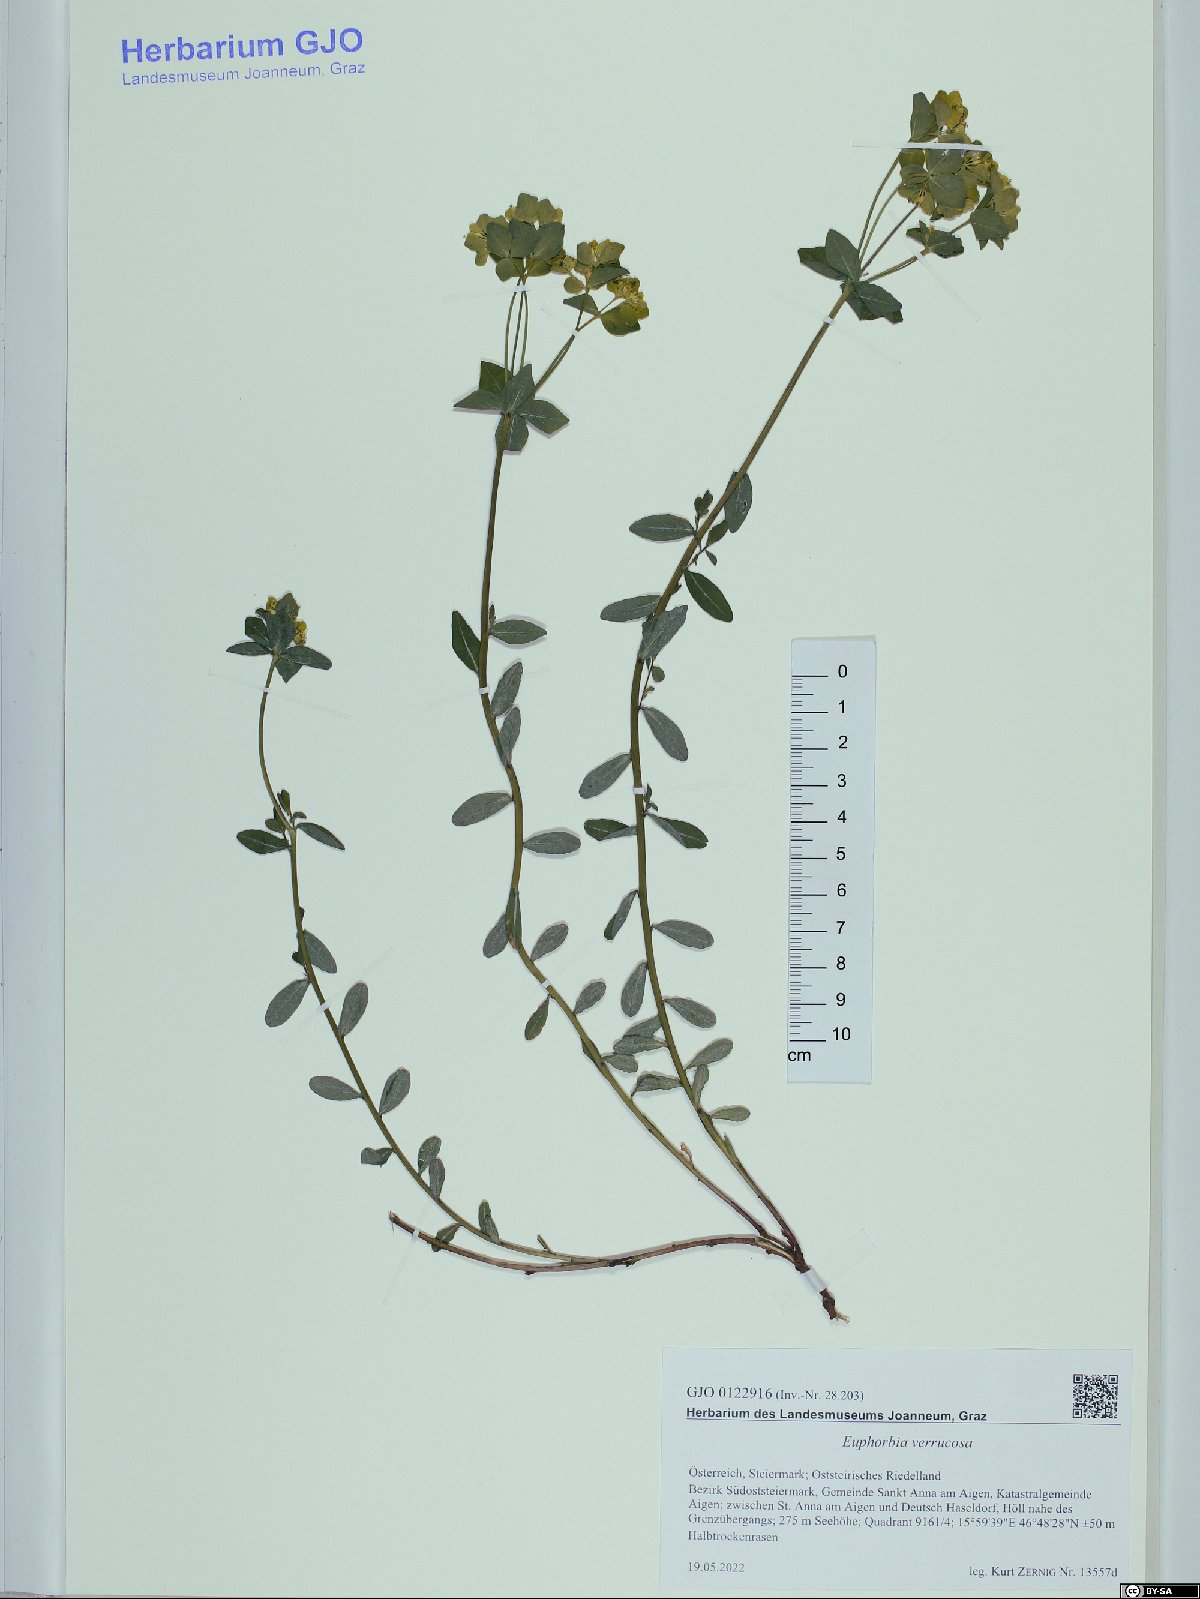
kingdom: Plantae
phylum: Tracheophyta
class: Magnoliopsida
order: Malpighiales
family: Euphorbiaceae
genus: Euphorbia
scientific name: Euphorbia verrucosa
